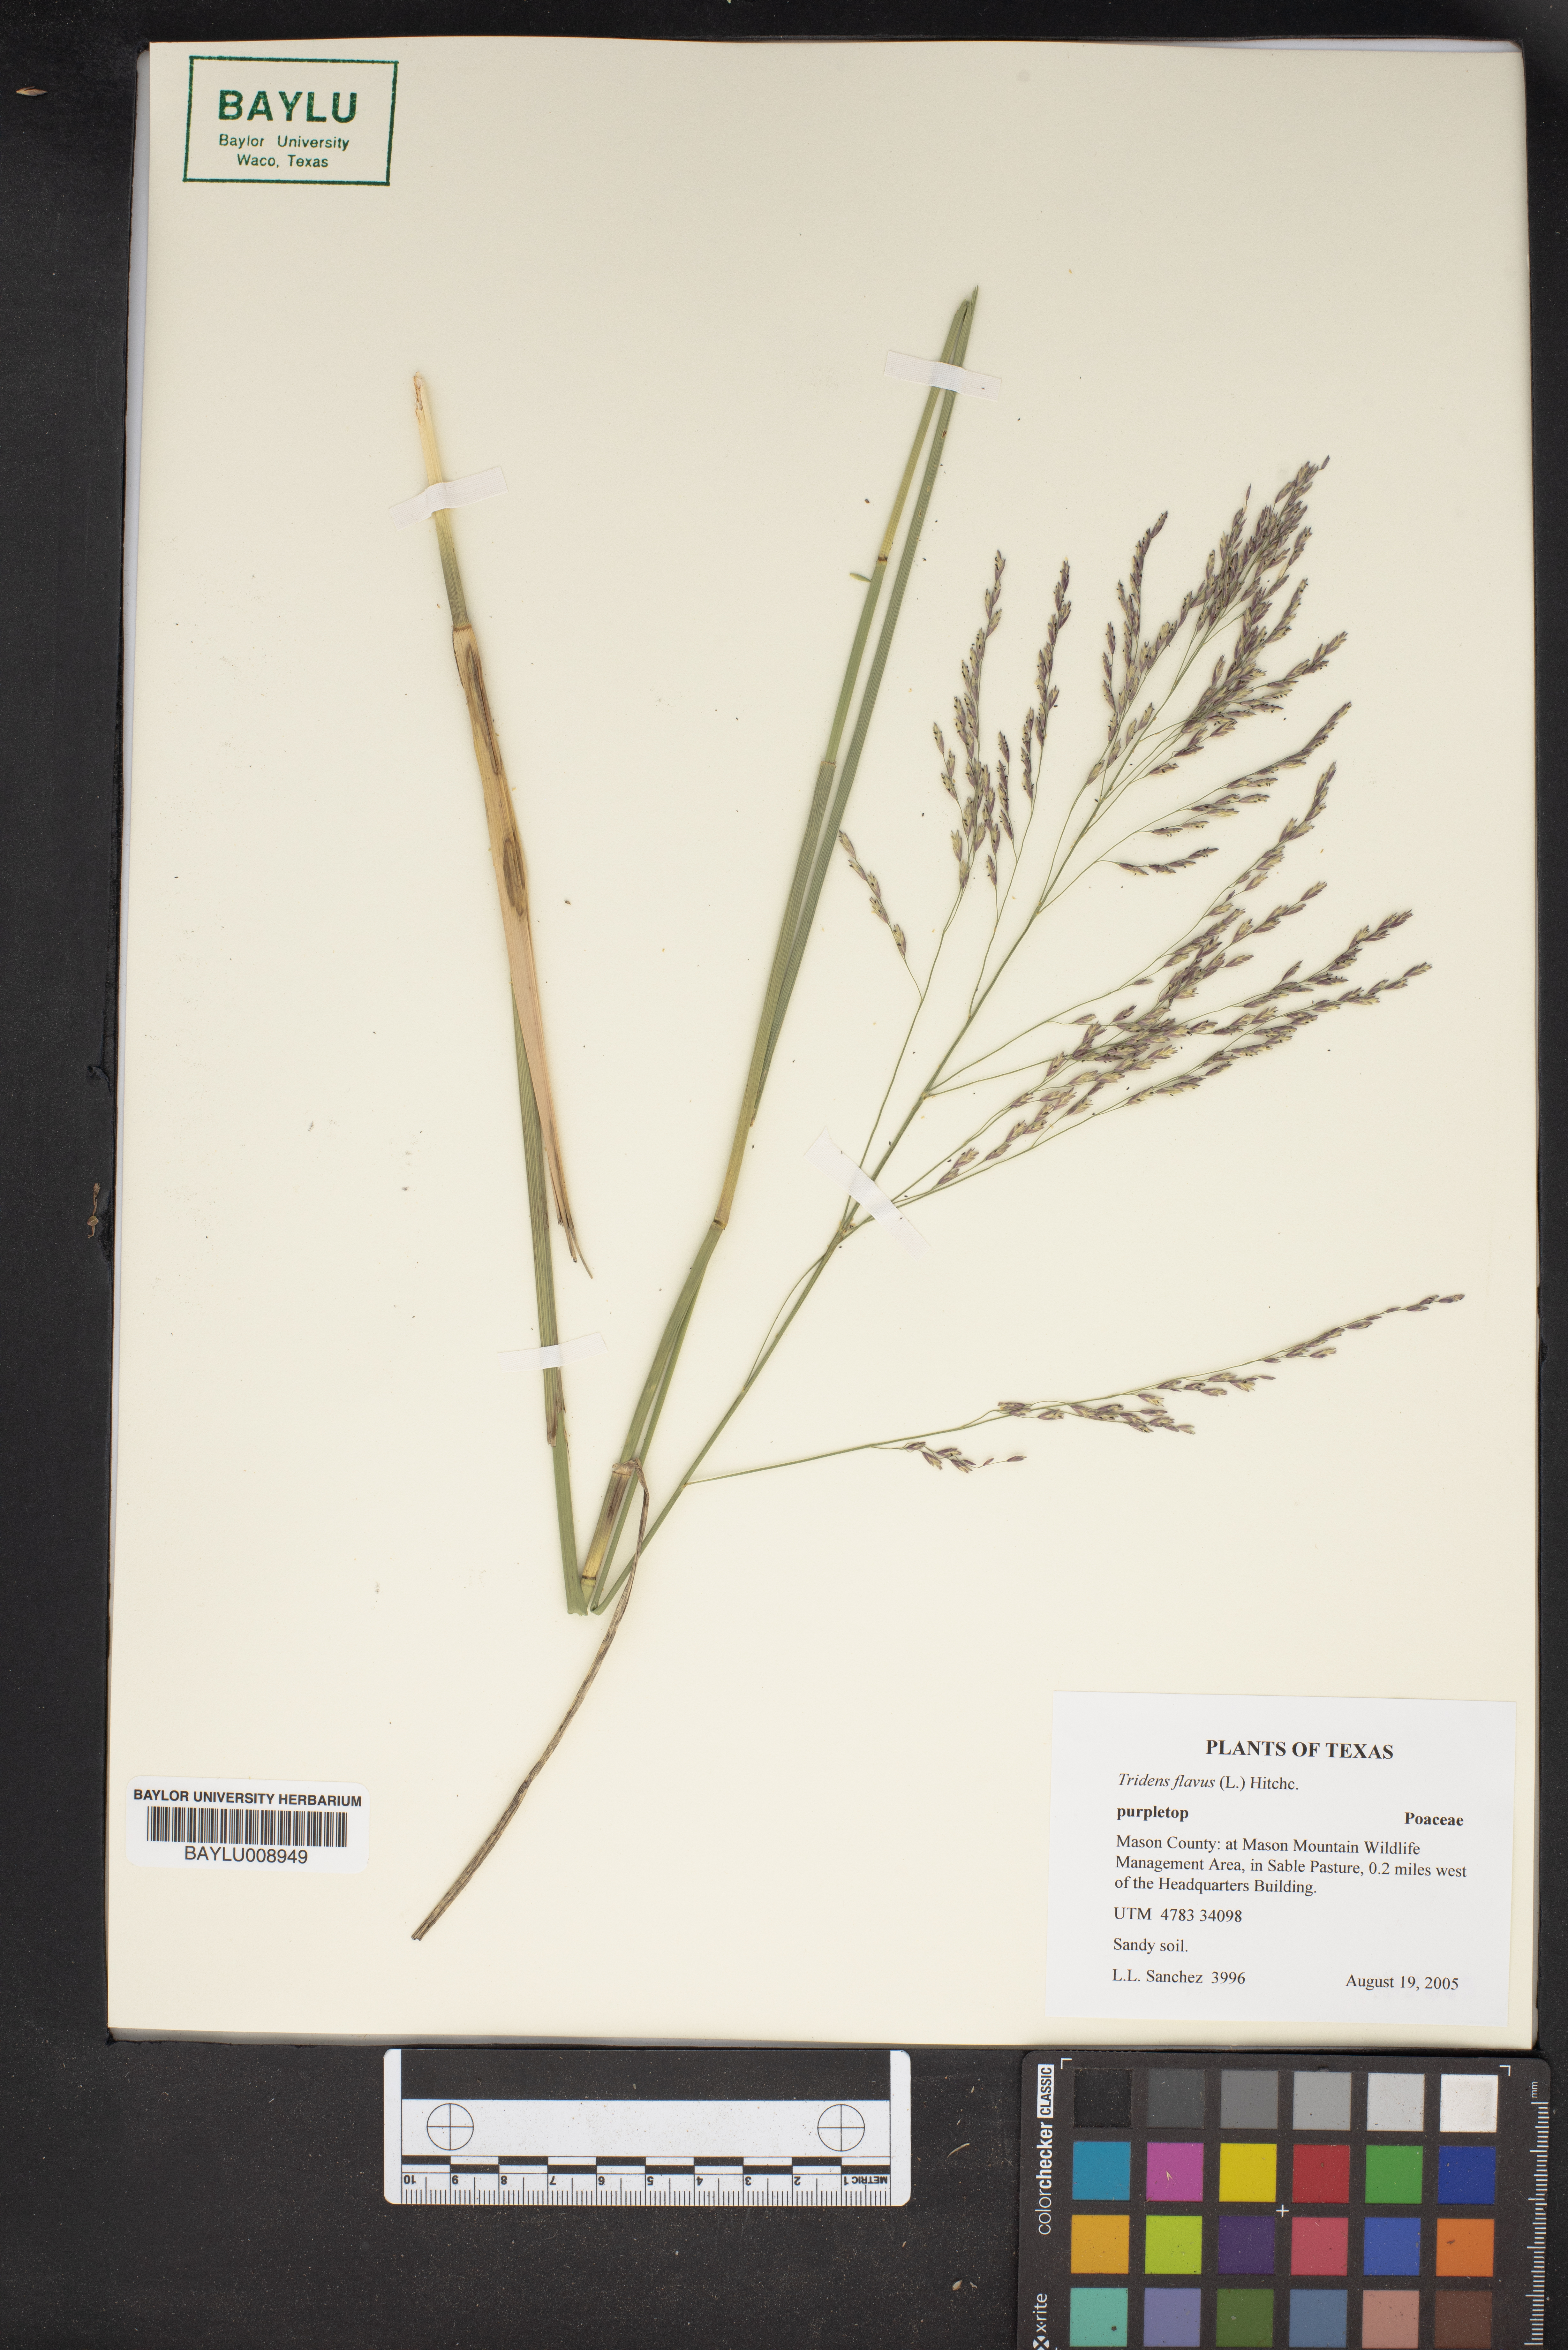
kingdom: Plantae
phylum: Tracheophyta
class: Liliopsida
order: Poales
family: Poaceae
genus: Tridens
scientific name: Tridens flavus
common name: Purpletop
